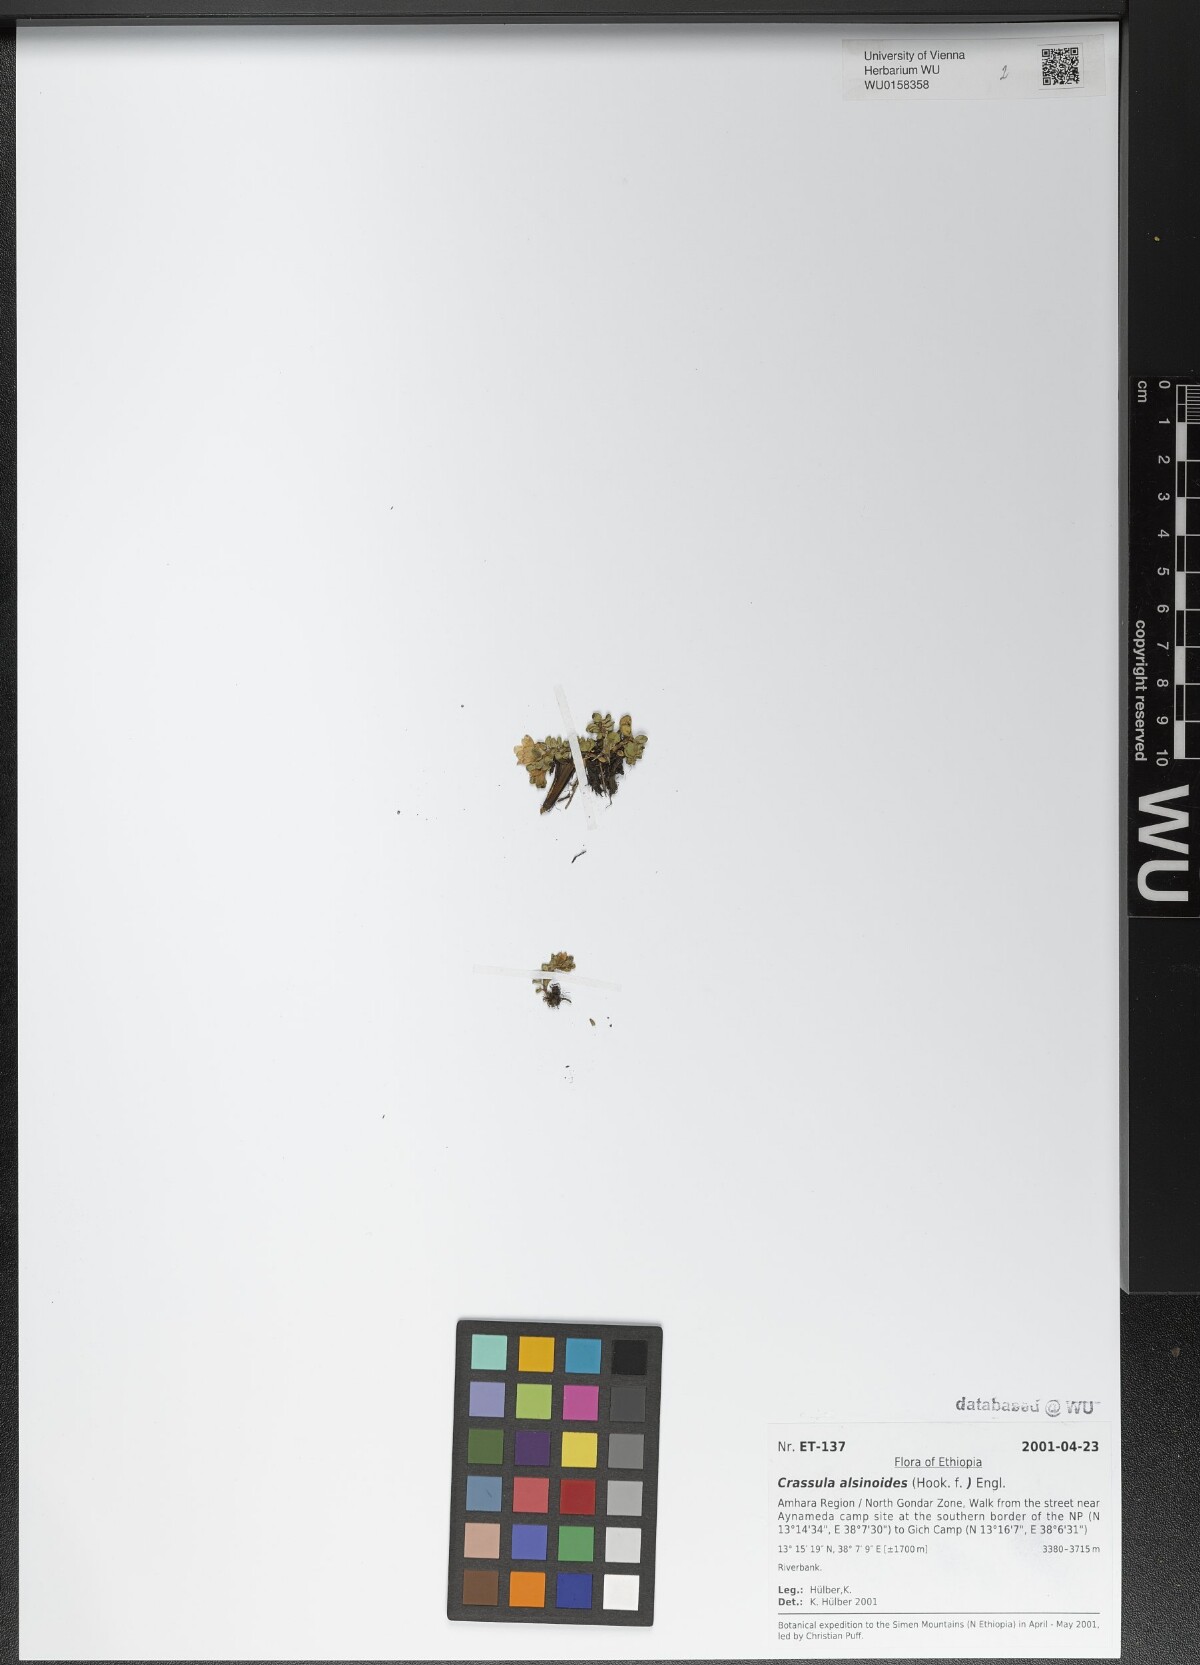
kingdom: Plantae
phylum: Tracheophyta
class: Magnoliopsida
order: Saxifragales
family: Crassulaceae
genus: Crassula
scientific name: Crassula alsinoides
